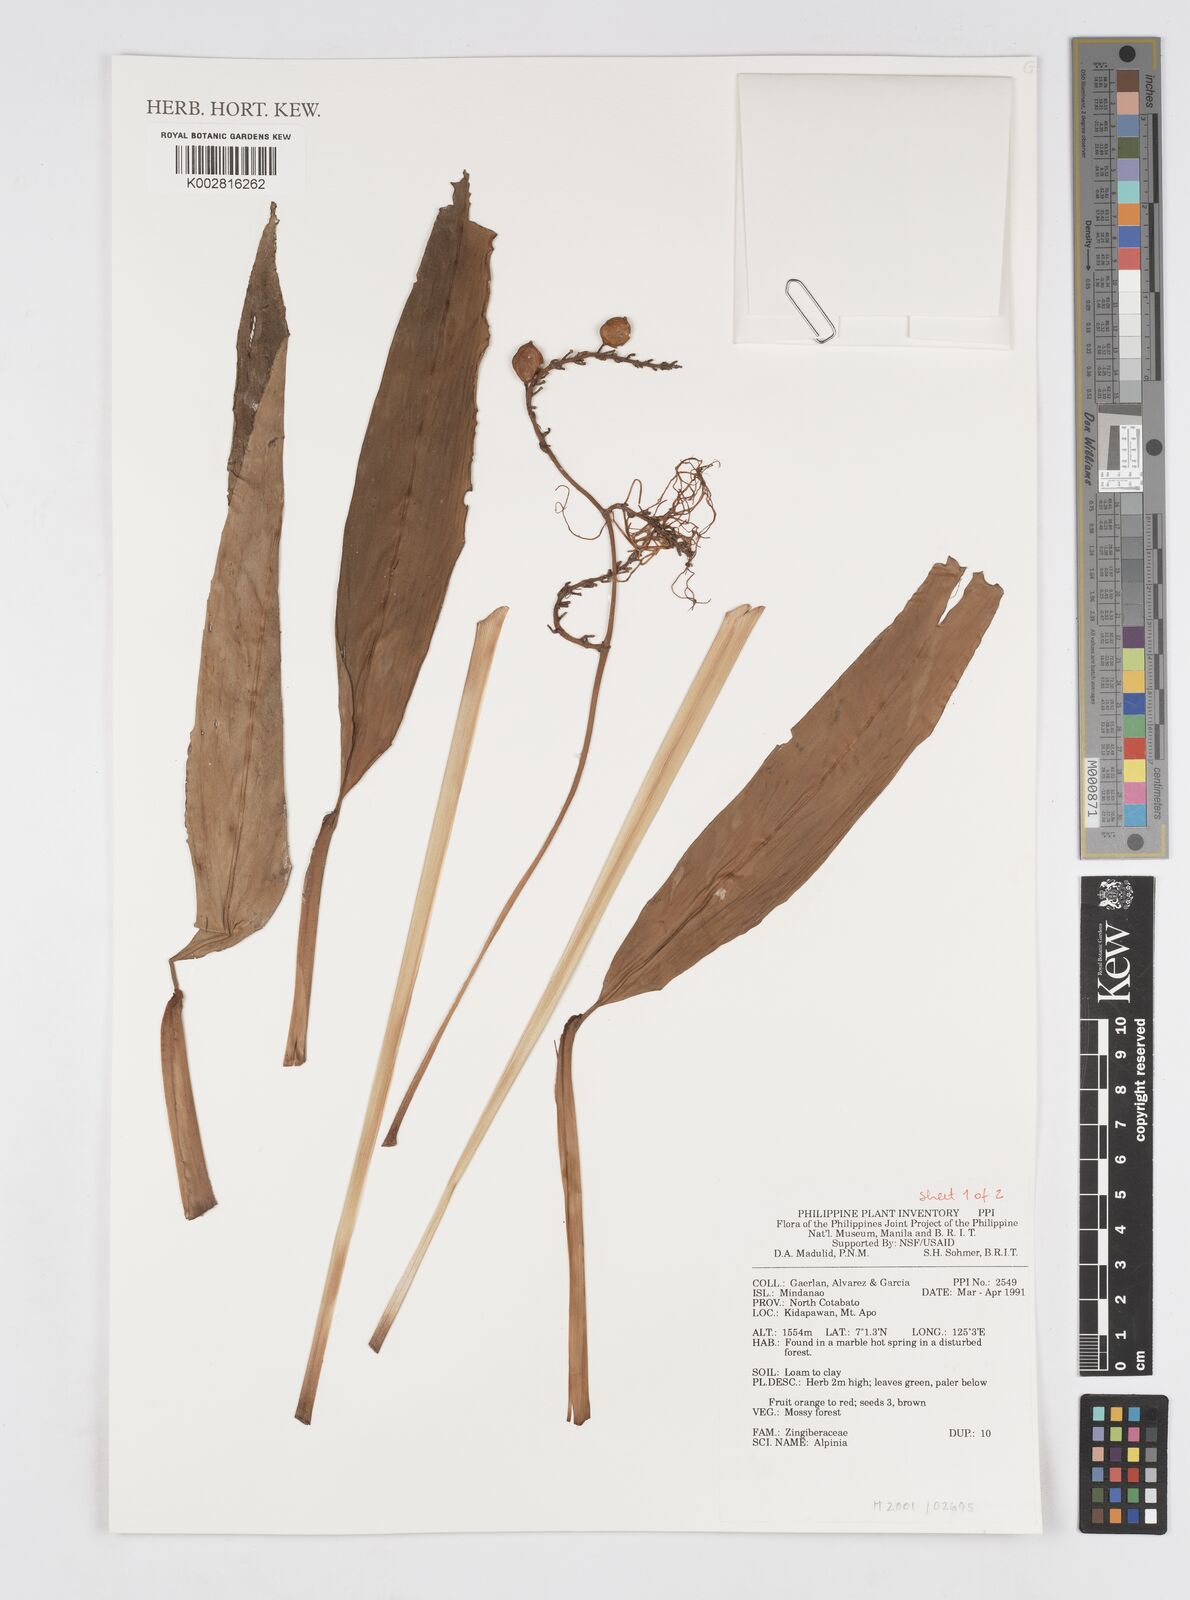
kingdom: Plantae
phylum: Tracheophyta
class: Liliopsida
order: Zingiberales
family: Zingiberaceae
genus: Alpinia
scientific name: Alpinia
